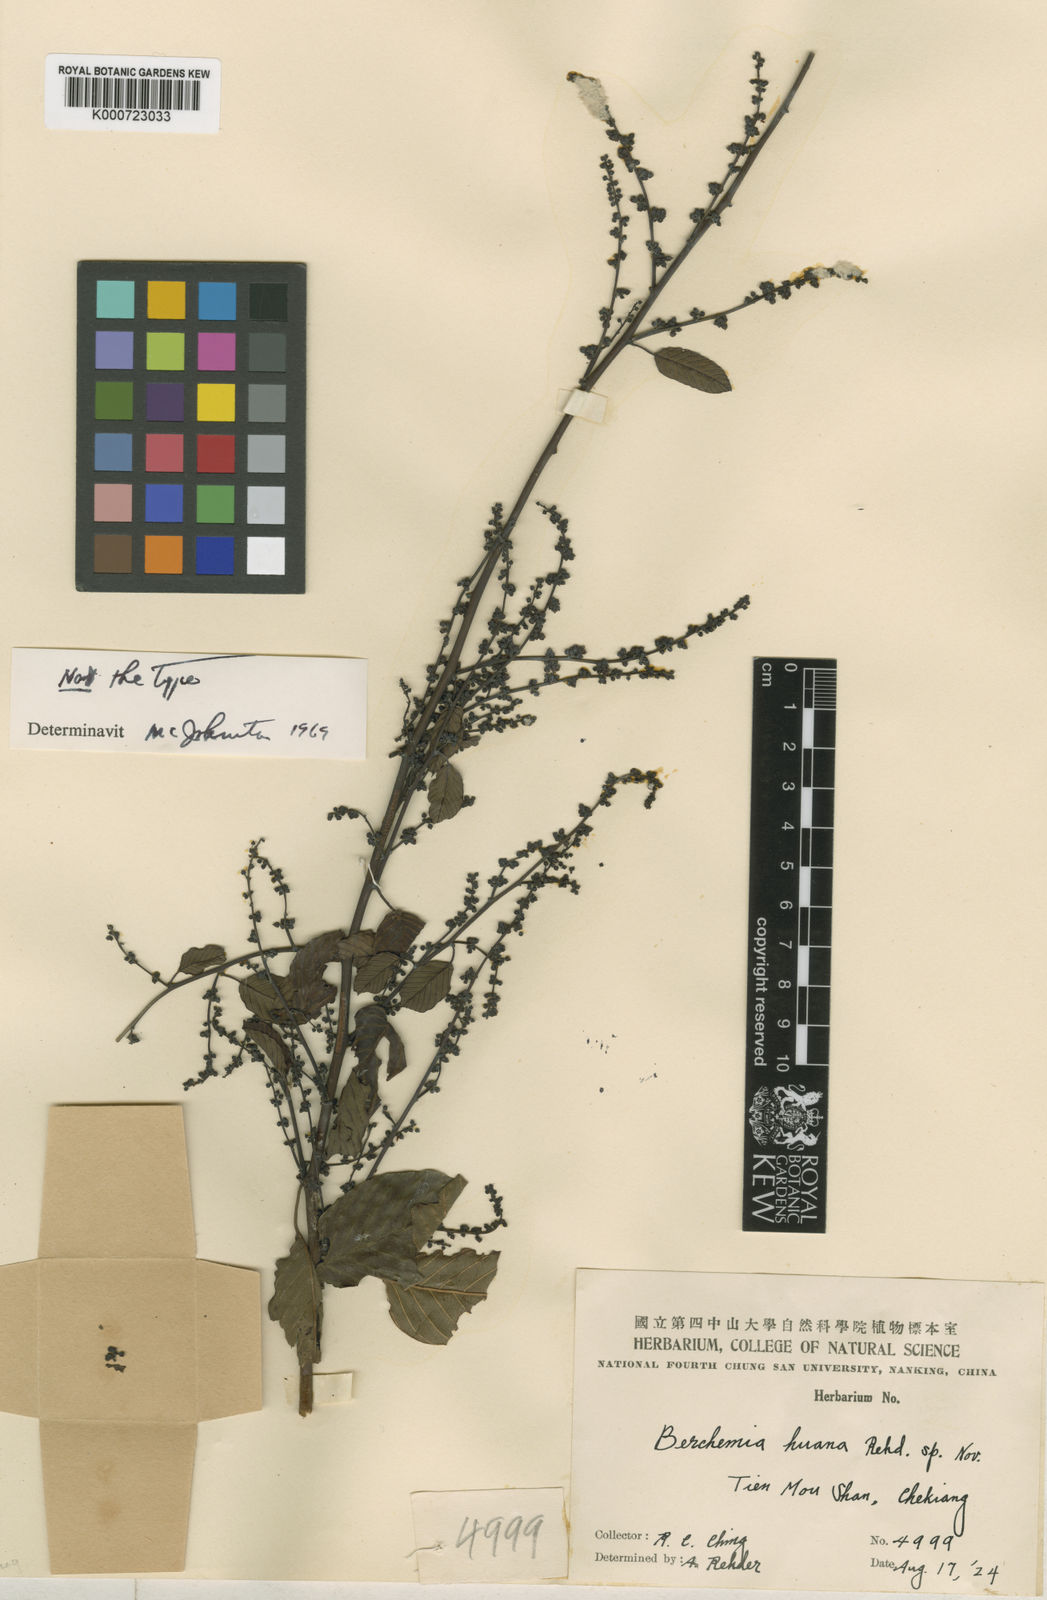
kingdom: Plantae
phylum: Tracheophyta
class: Magnoliopsida
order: Rosales
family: Rhamnaceae
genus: Berchemia
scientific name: Berchemia huana
